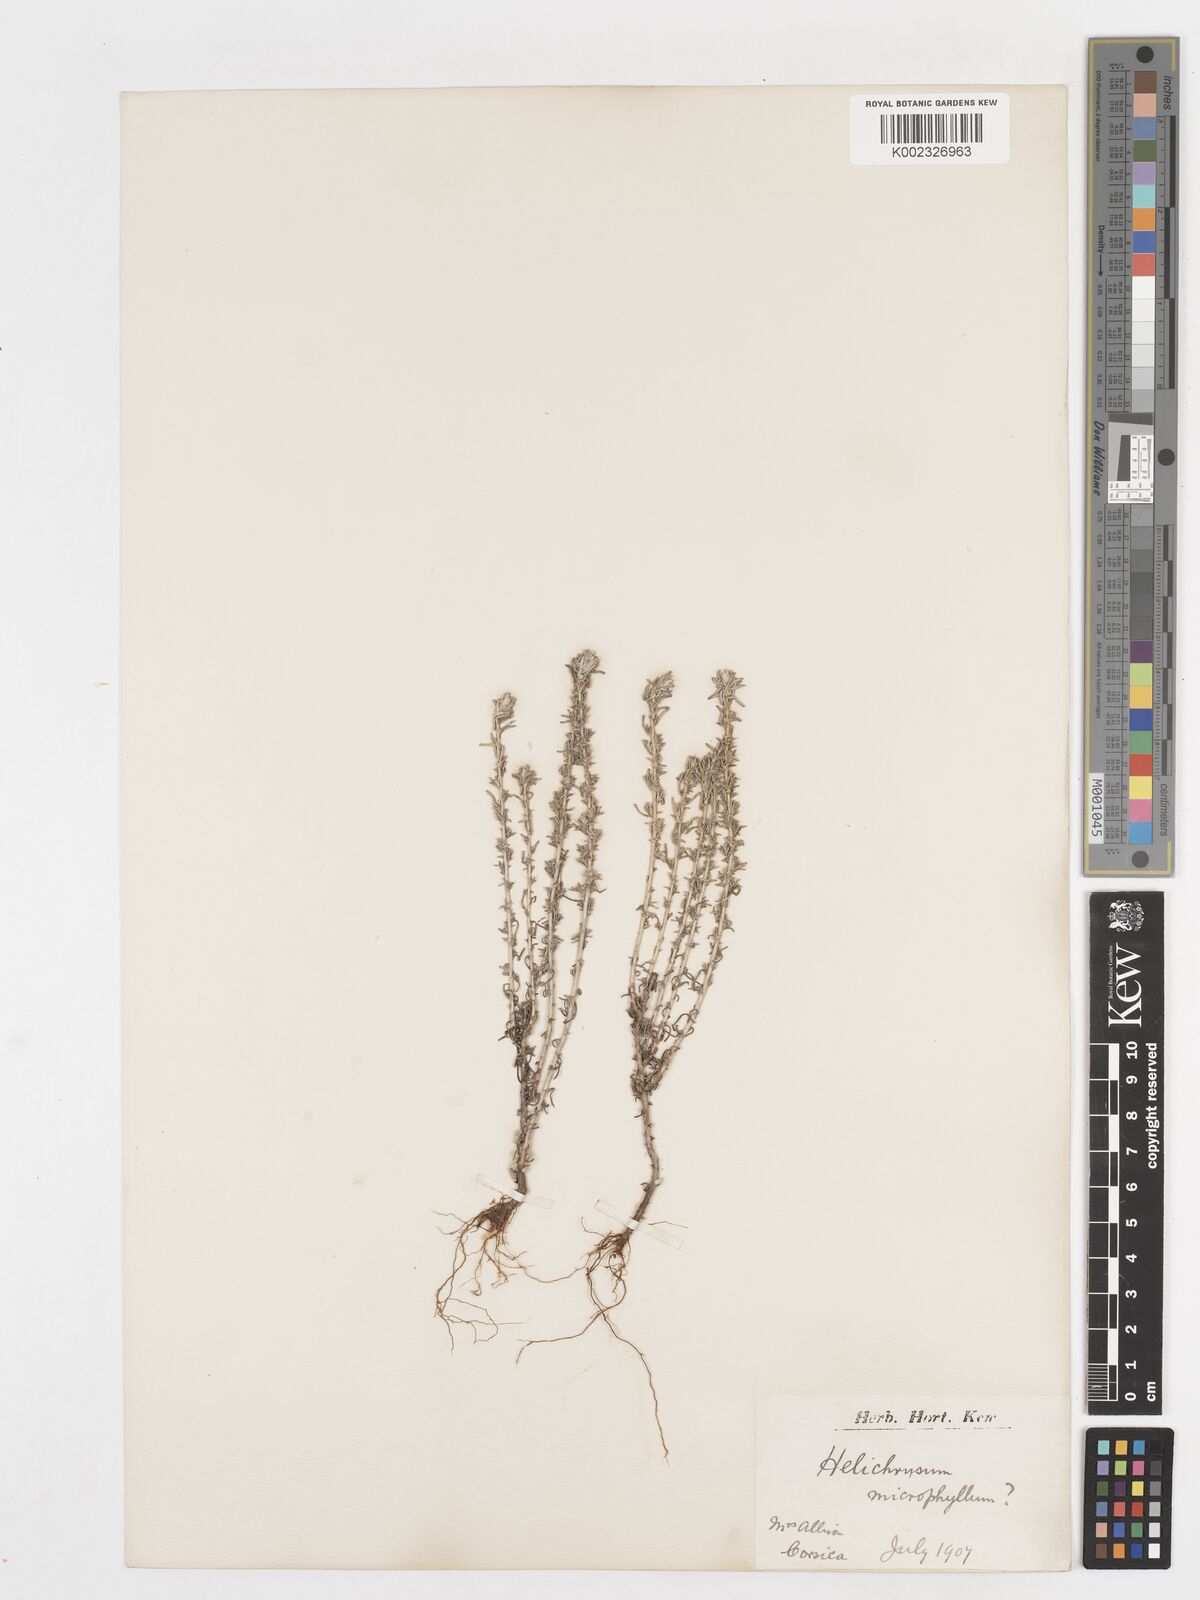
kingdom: Plantae
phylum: Tracheophyta
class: Magnoliopsida
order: Asterales
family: Asteraceae
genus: Helichrysum
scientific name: Helichrysum
